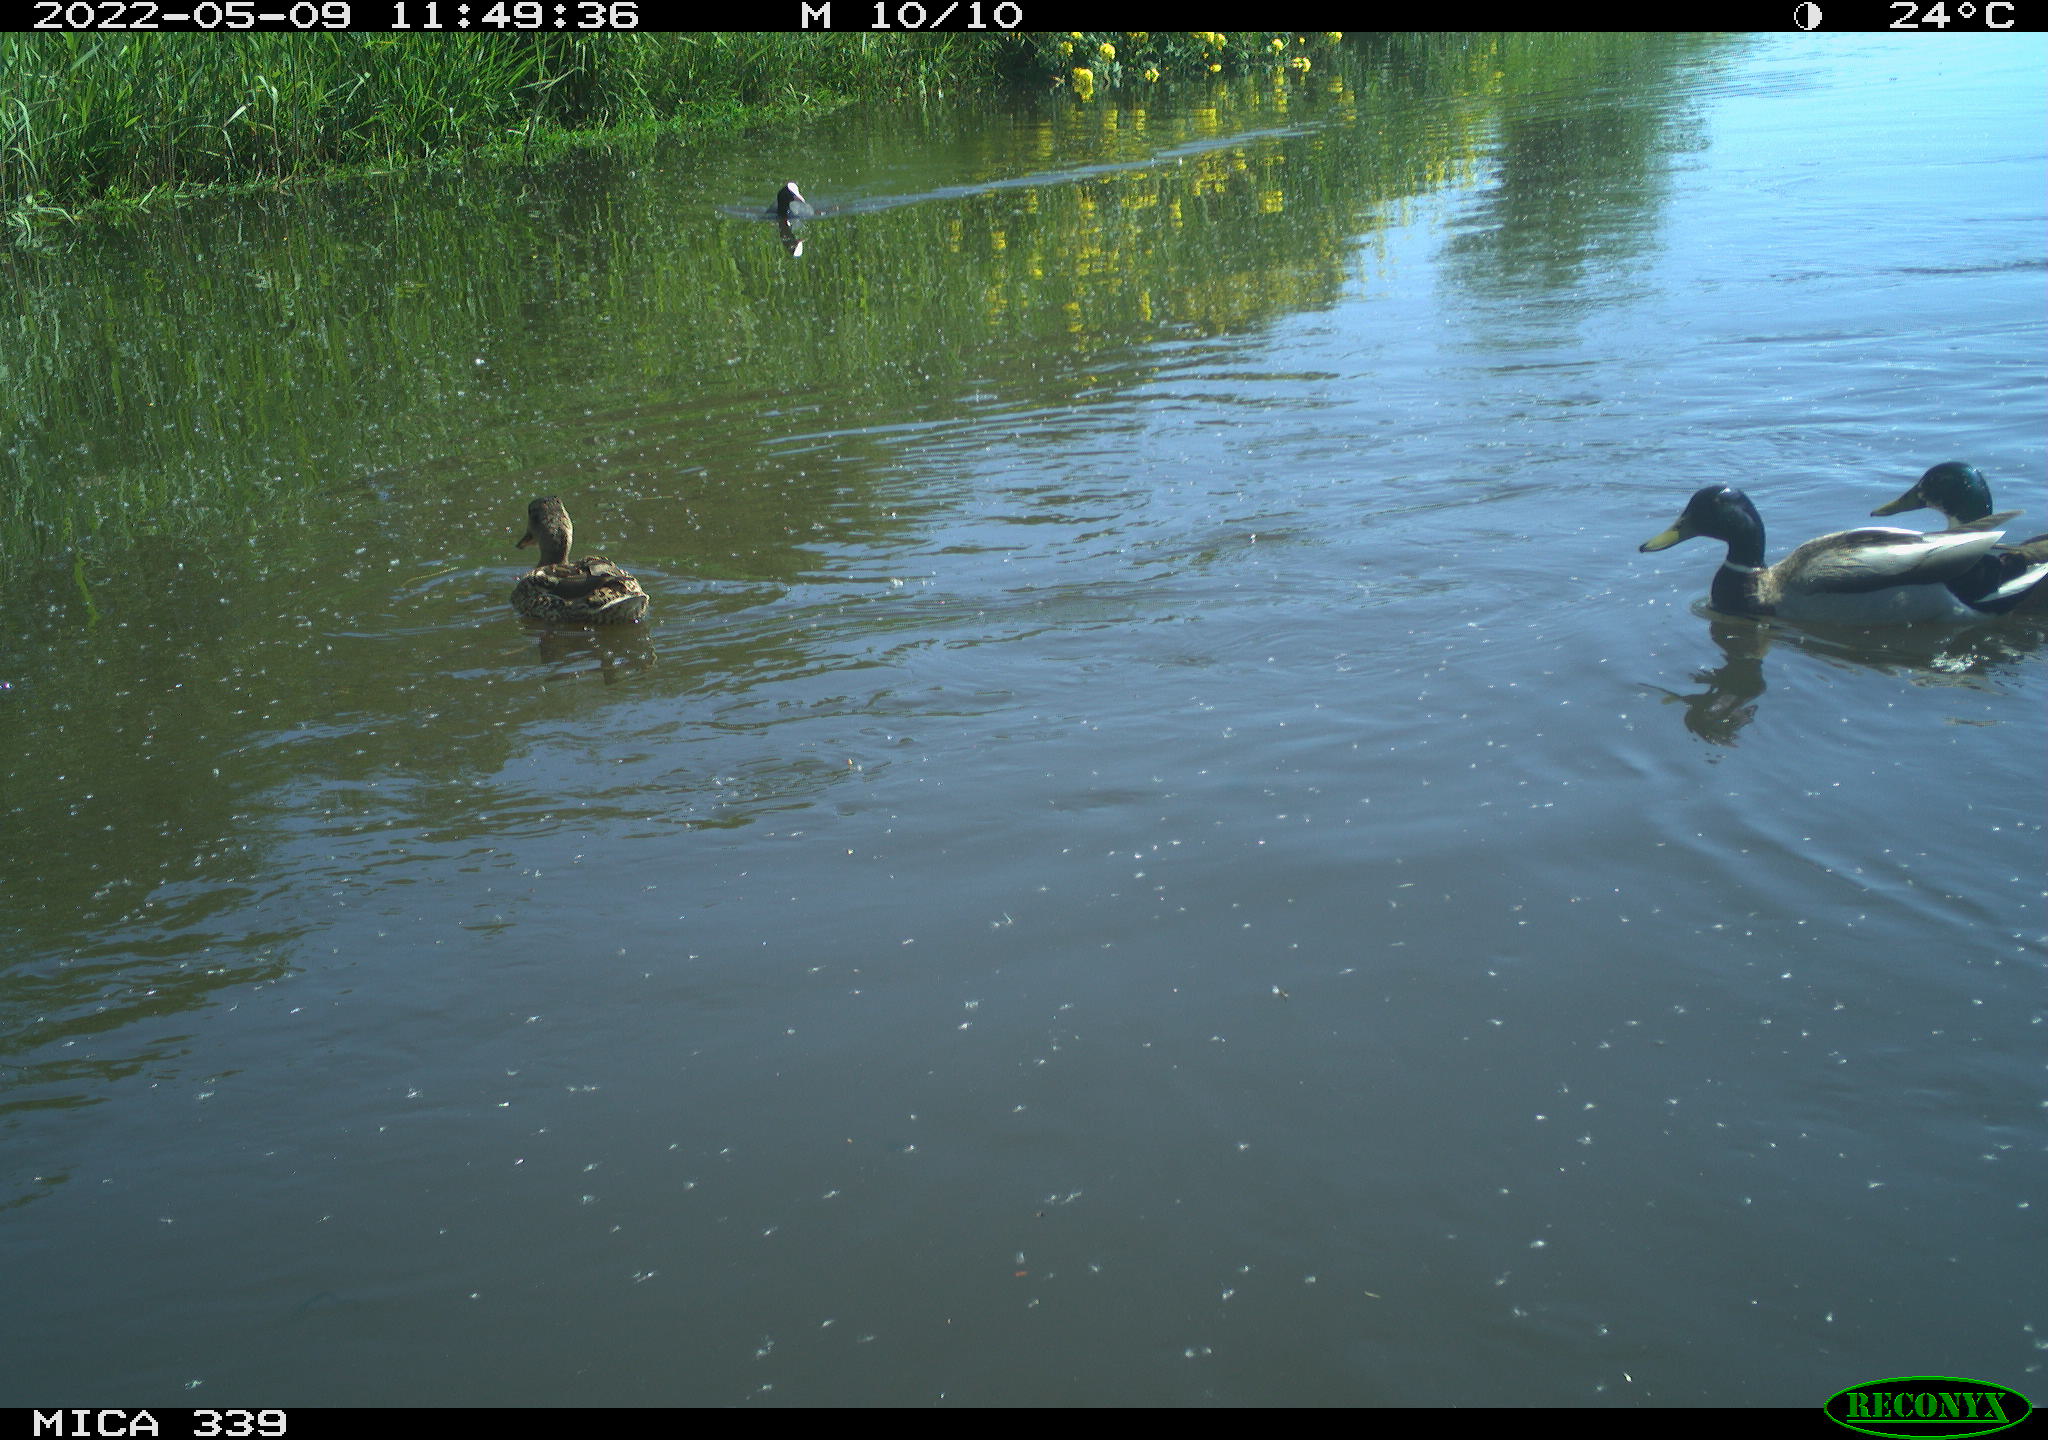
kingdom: Animalia
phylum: Chordata
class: Aves
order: Anseriformes
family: Anatidae
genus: Anas
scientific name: Anas platyrhynchos
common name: Mallard
